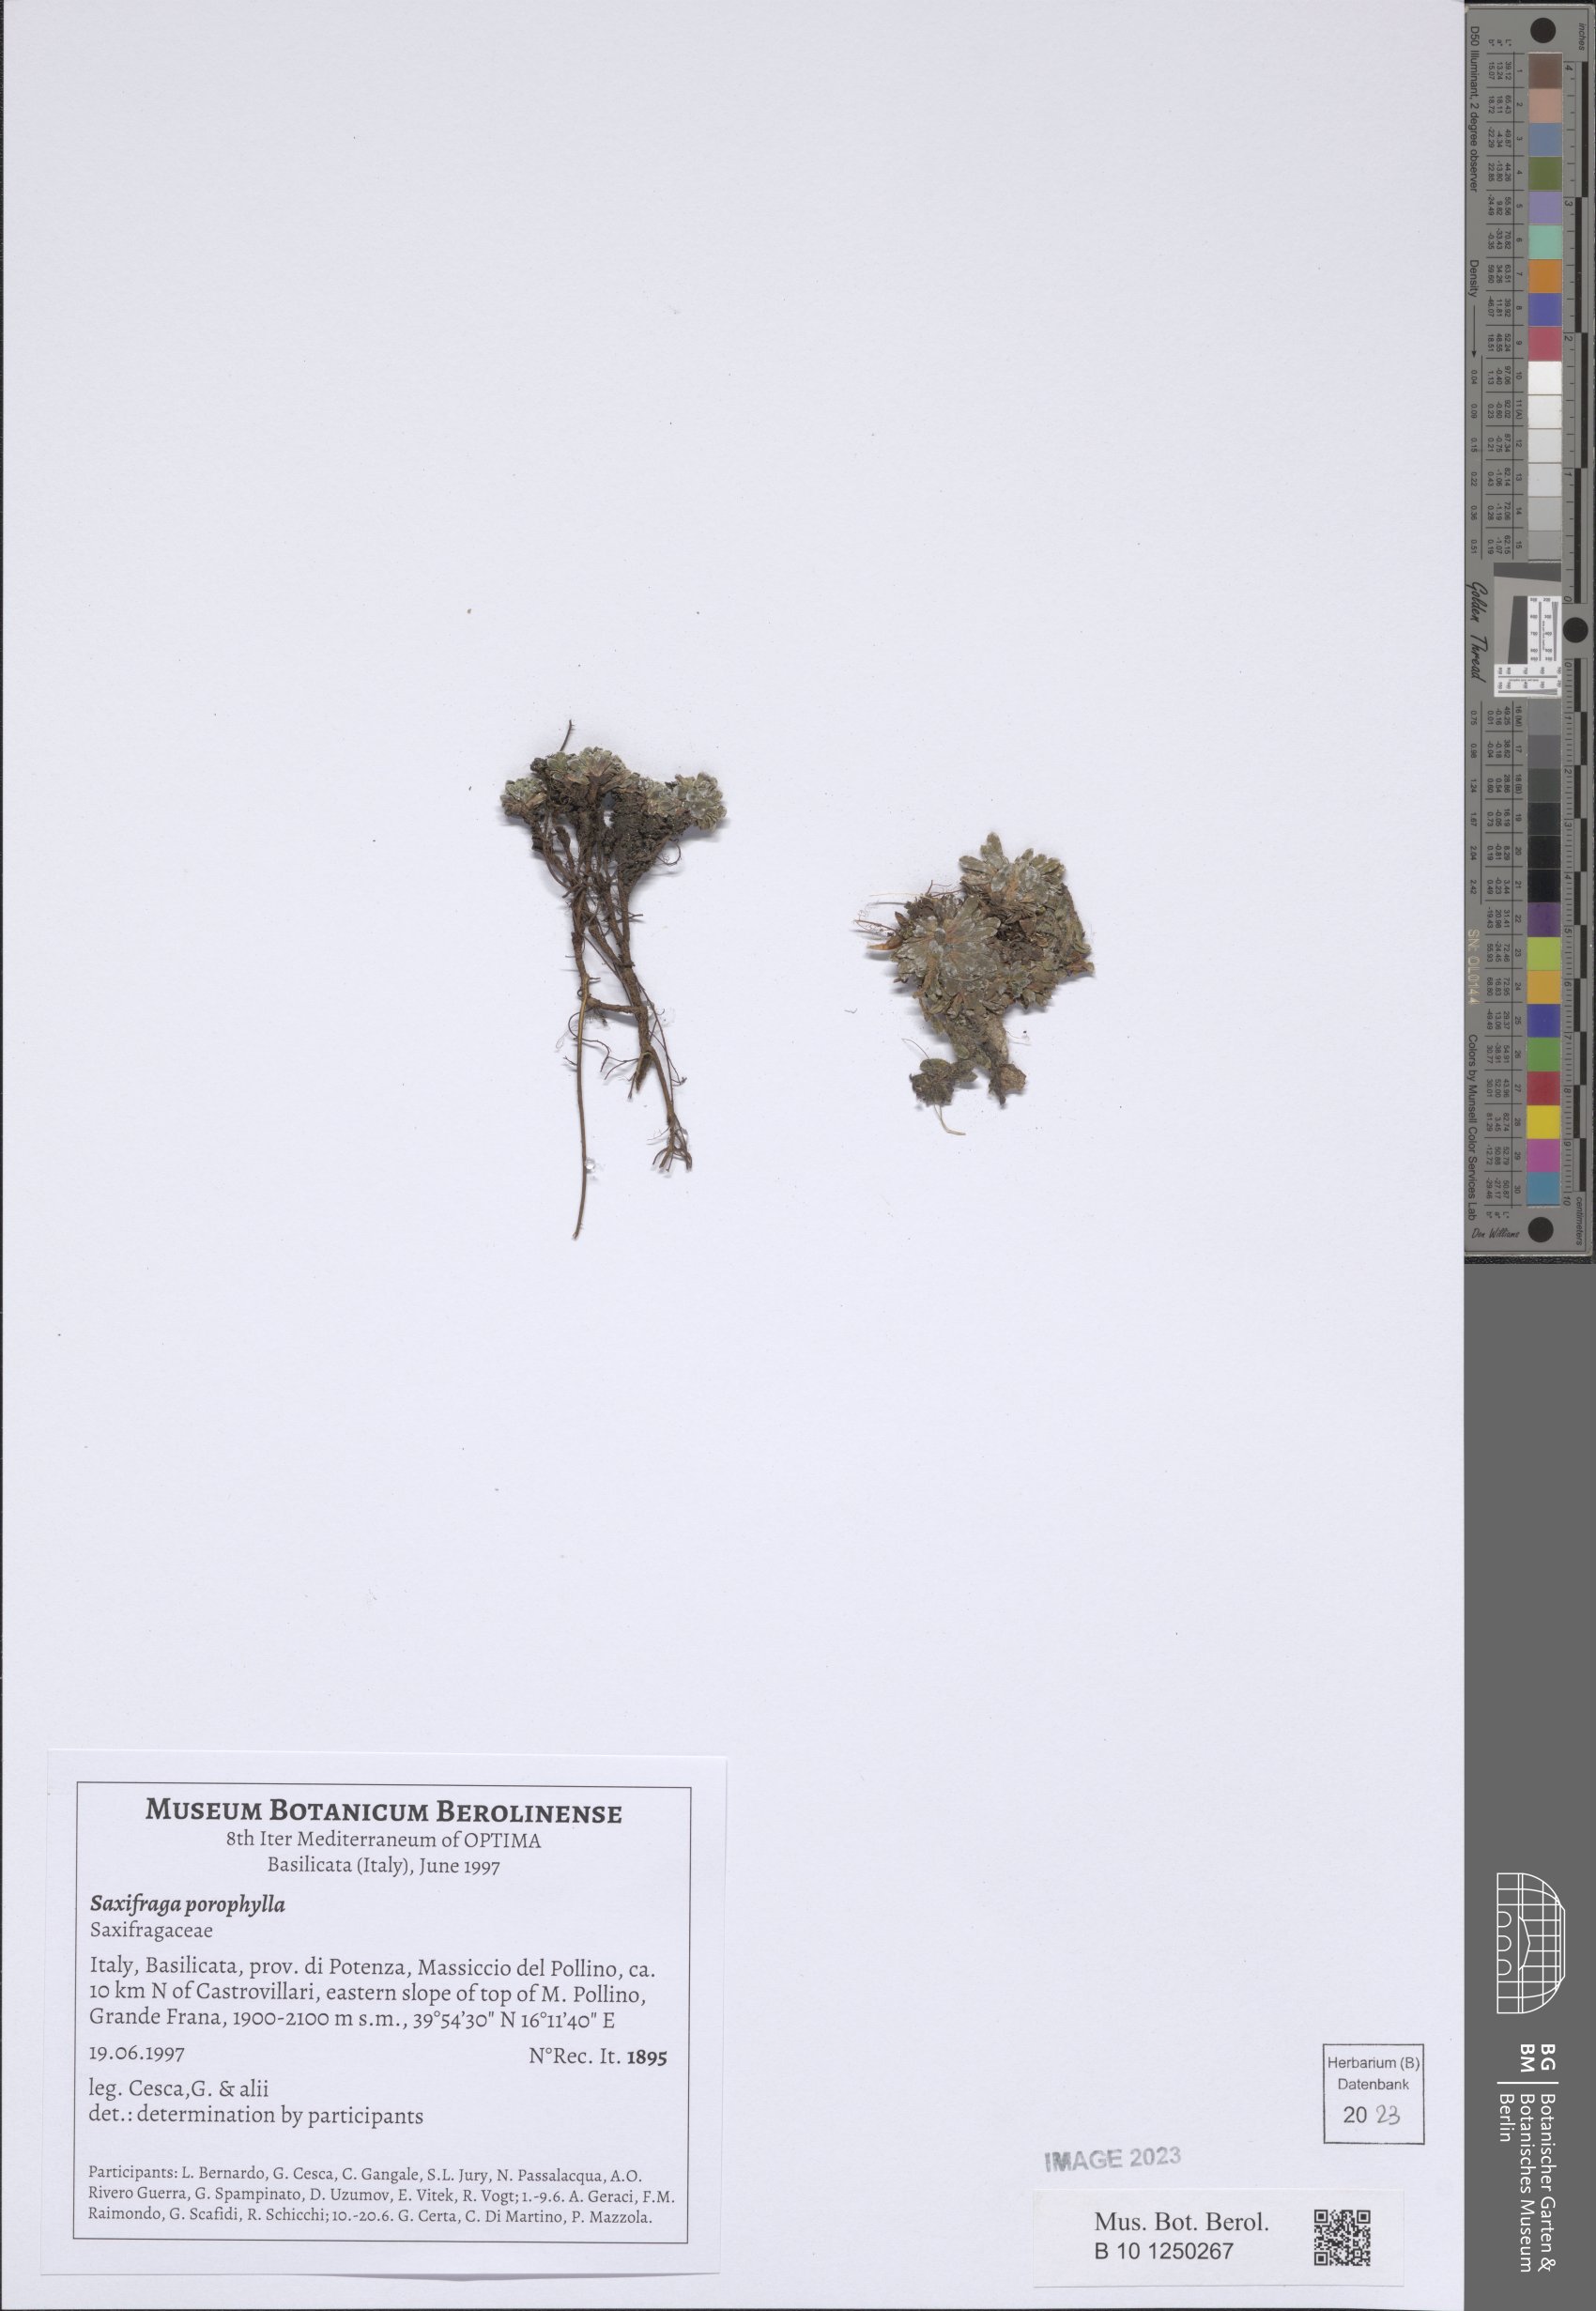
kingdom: Plantae
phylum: Tracheophyta
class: Magnoliopsida
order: Saxifragales
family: Saxifragaceae
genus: Saxifraga
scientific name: Saxifraga porophylla
